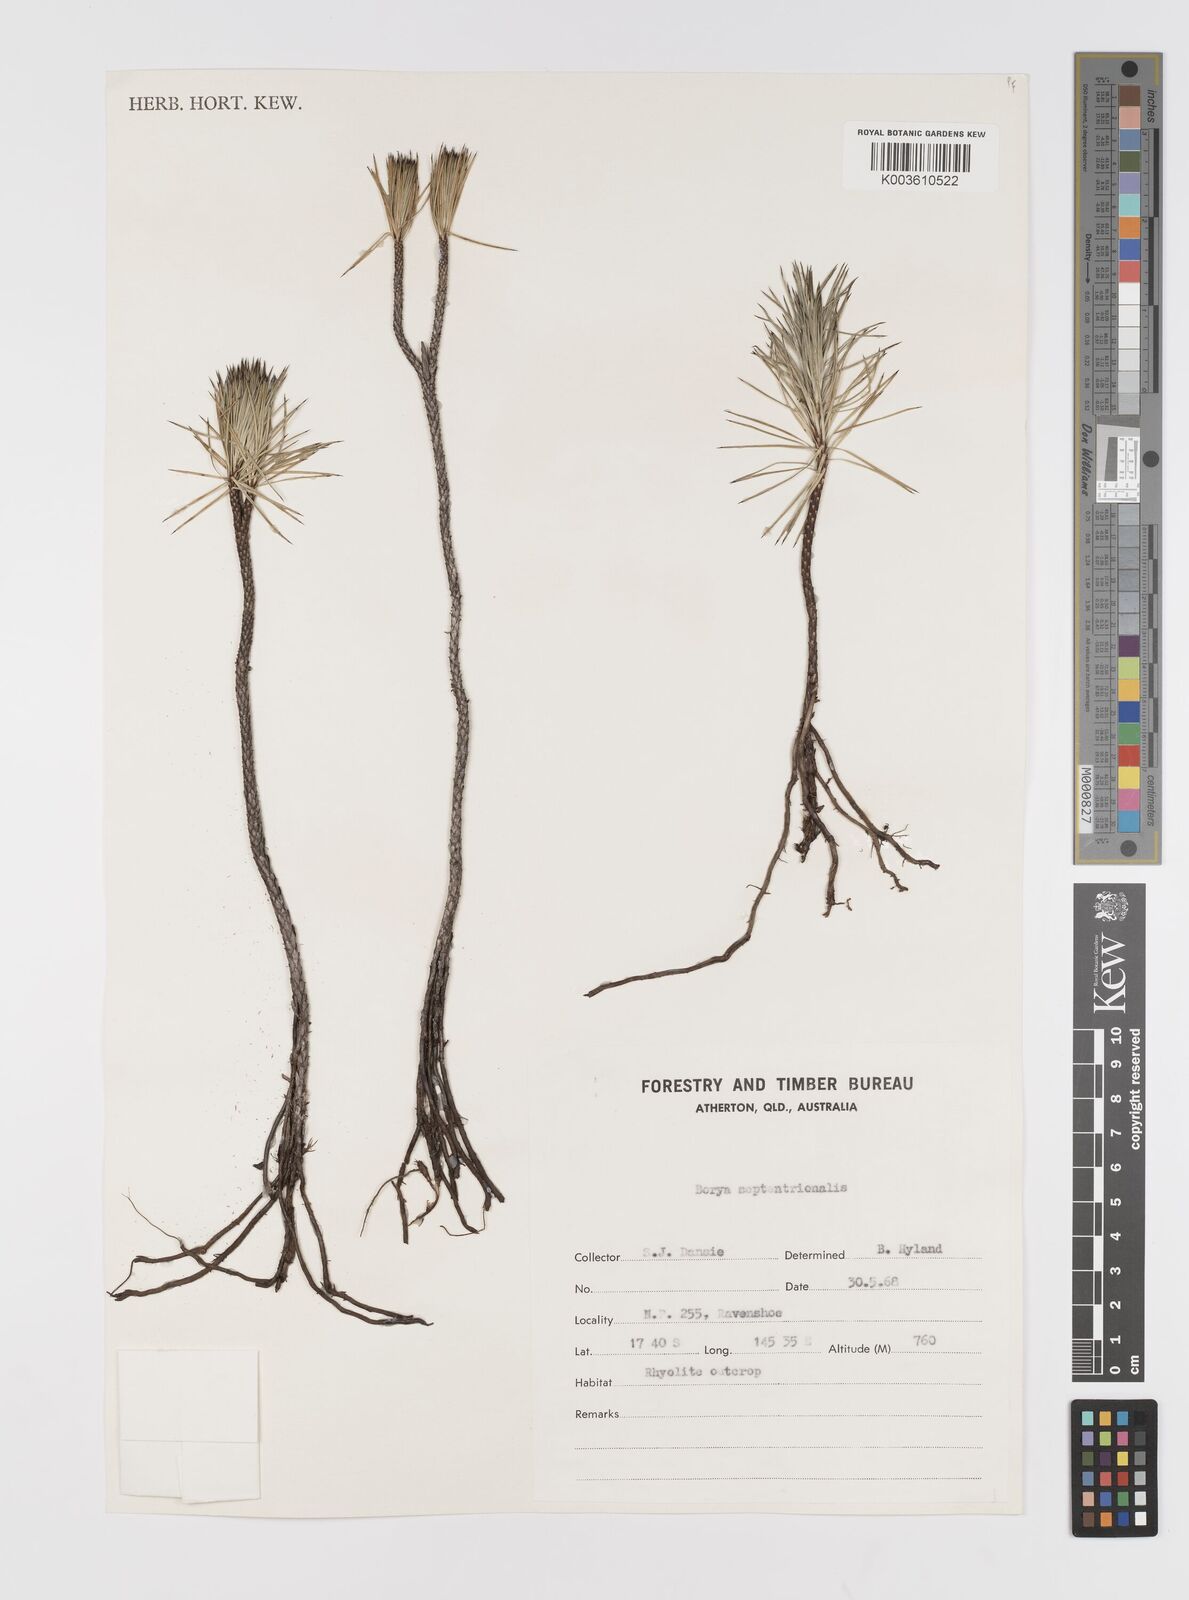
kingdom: Plantae
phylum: Tracheophyta
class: Liliopsida
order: Asparagales
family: Boryaceae
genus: Borya
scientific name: Borya septentrionalis
